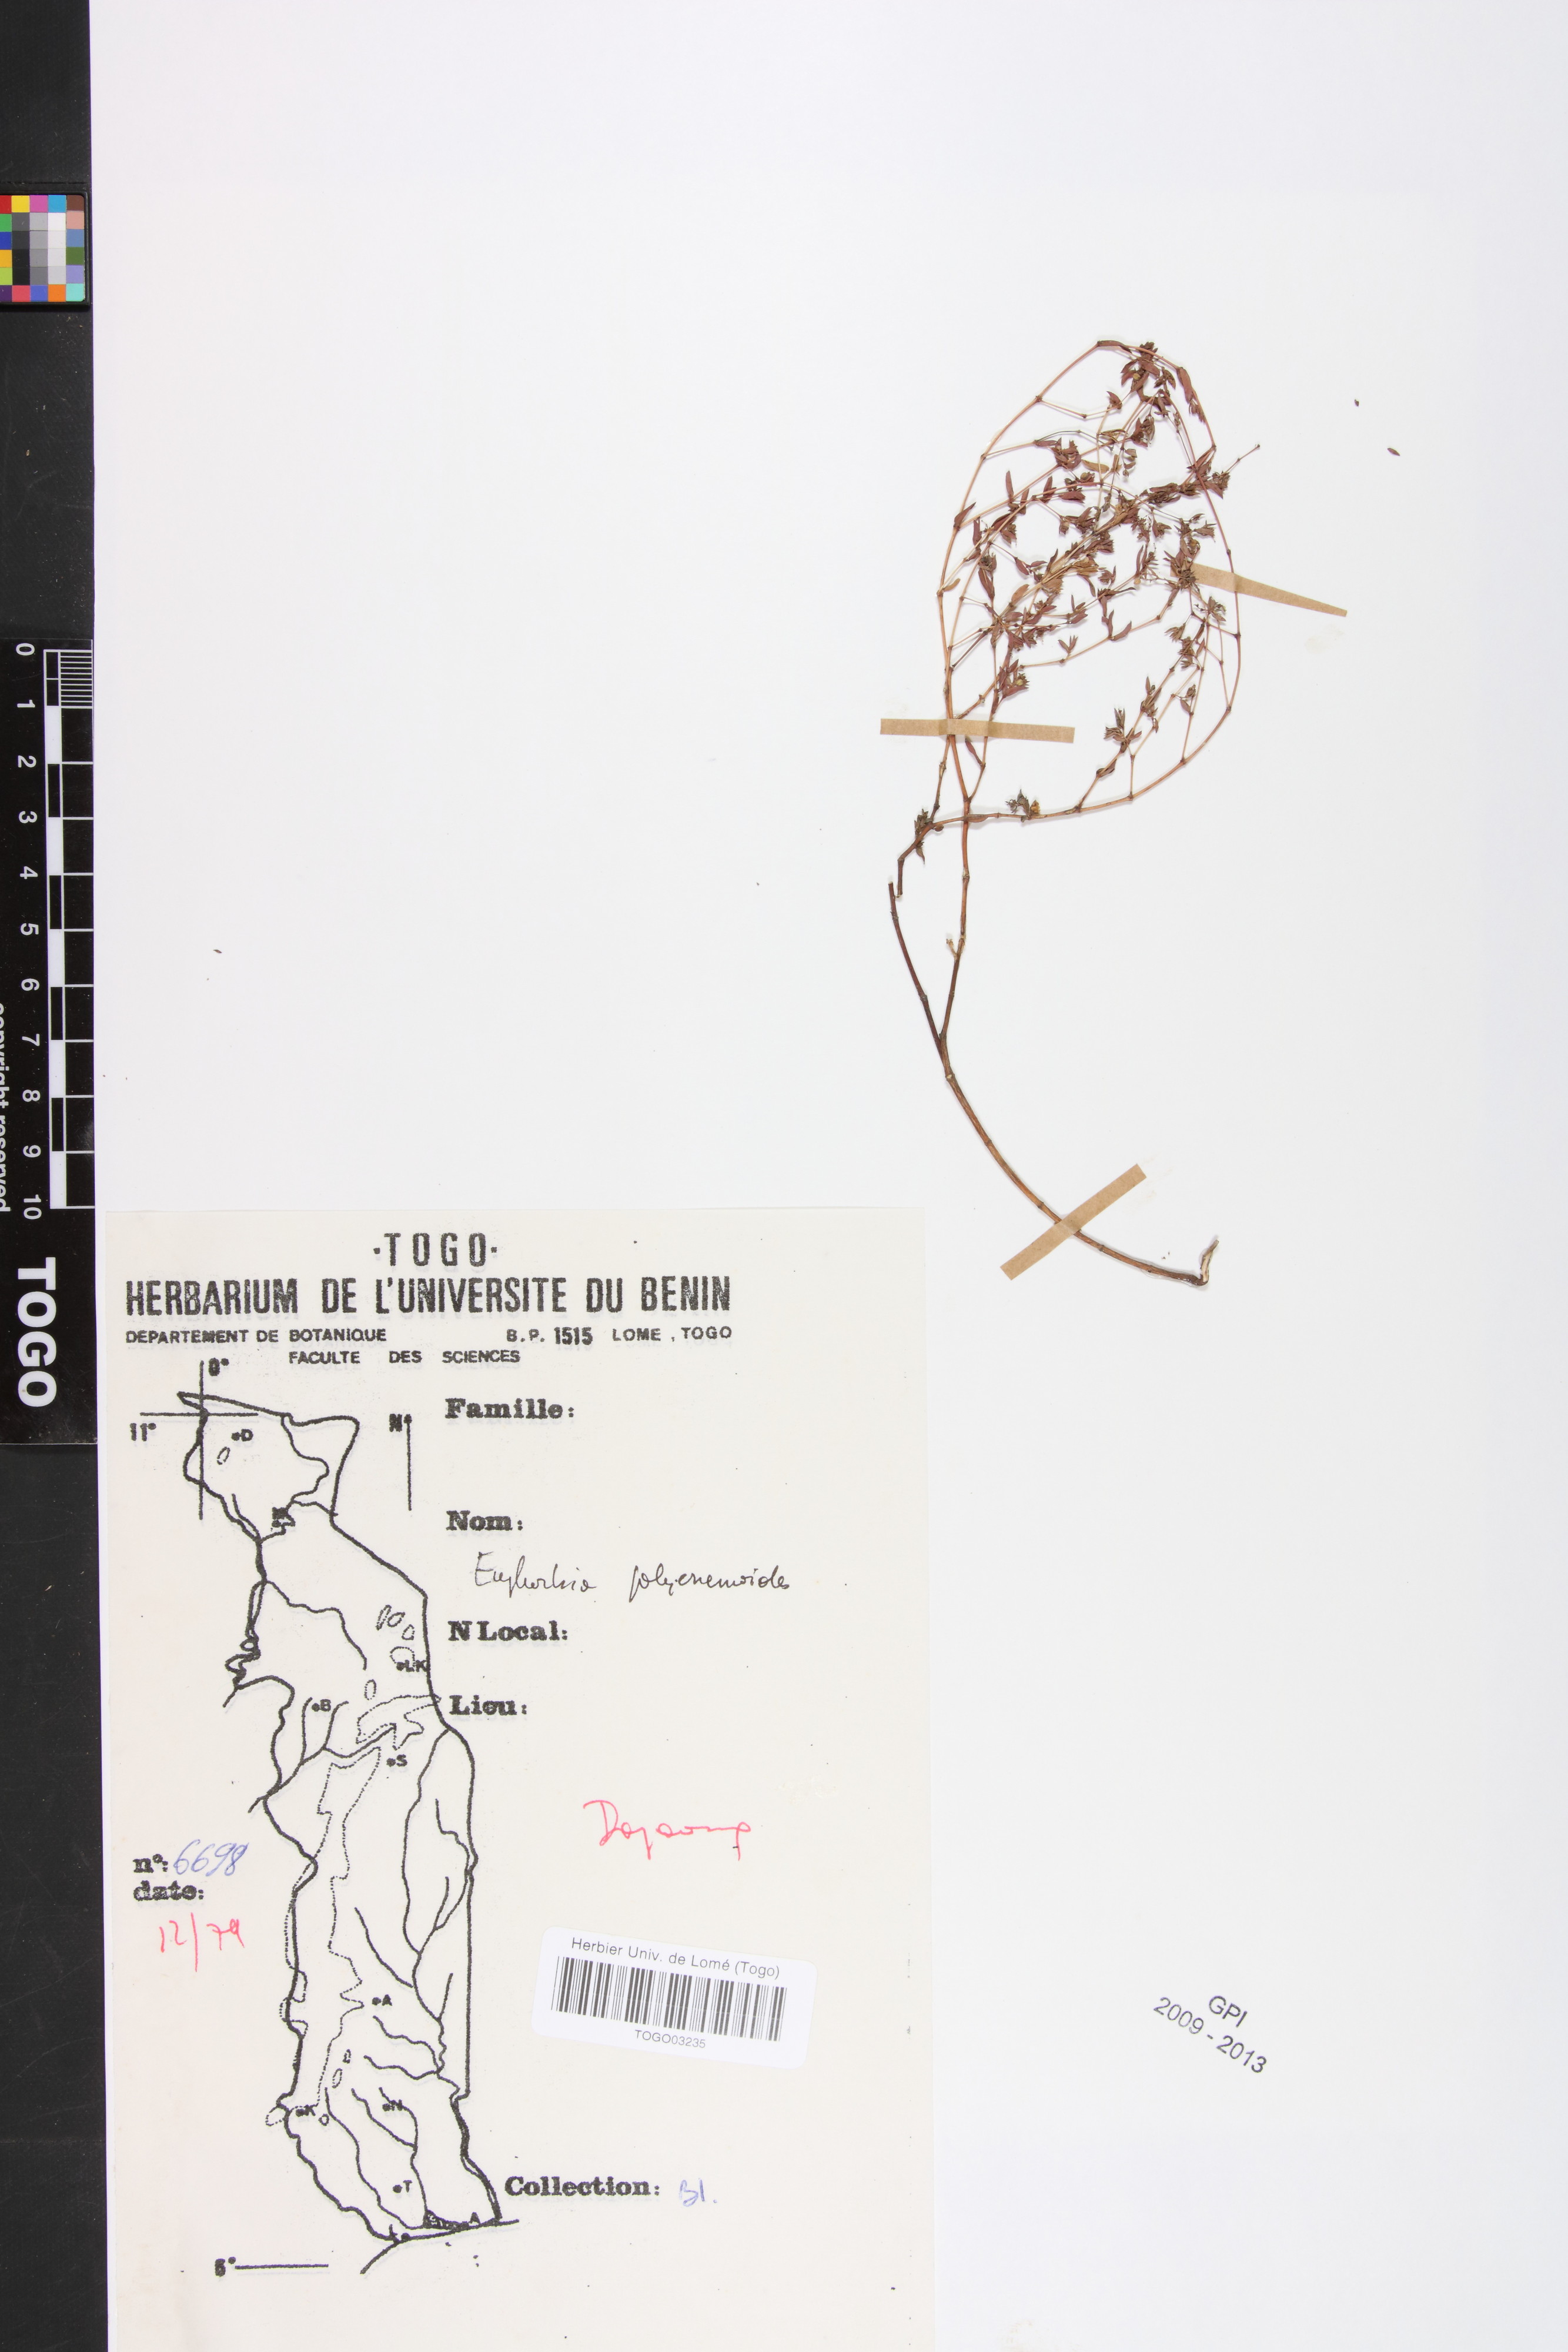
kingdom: Plantae
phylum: Tracheophyta
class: Magnoliopsida
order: Malpighiales
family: Euphorbiaceae
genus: Euphorbia
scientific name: Euphorbia polycnemoides
